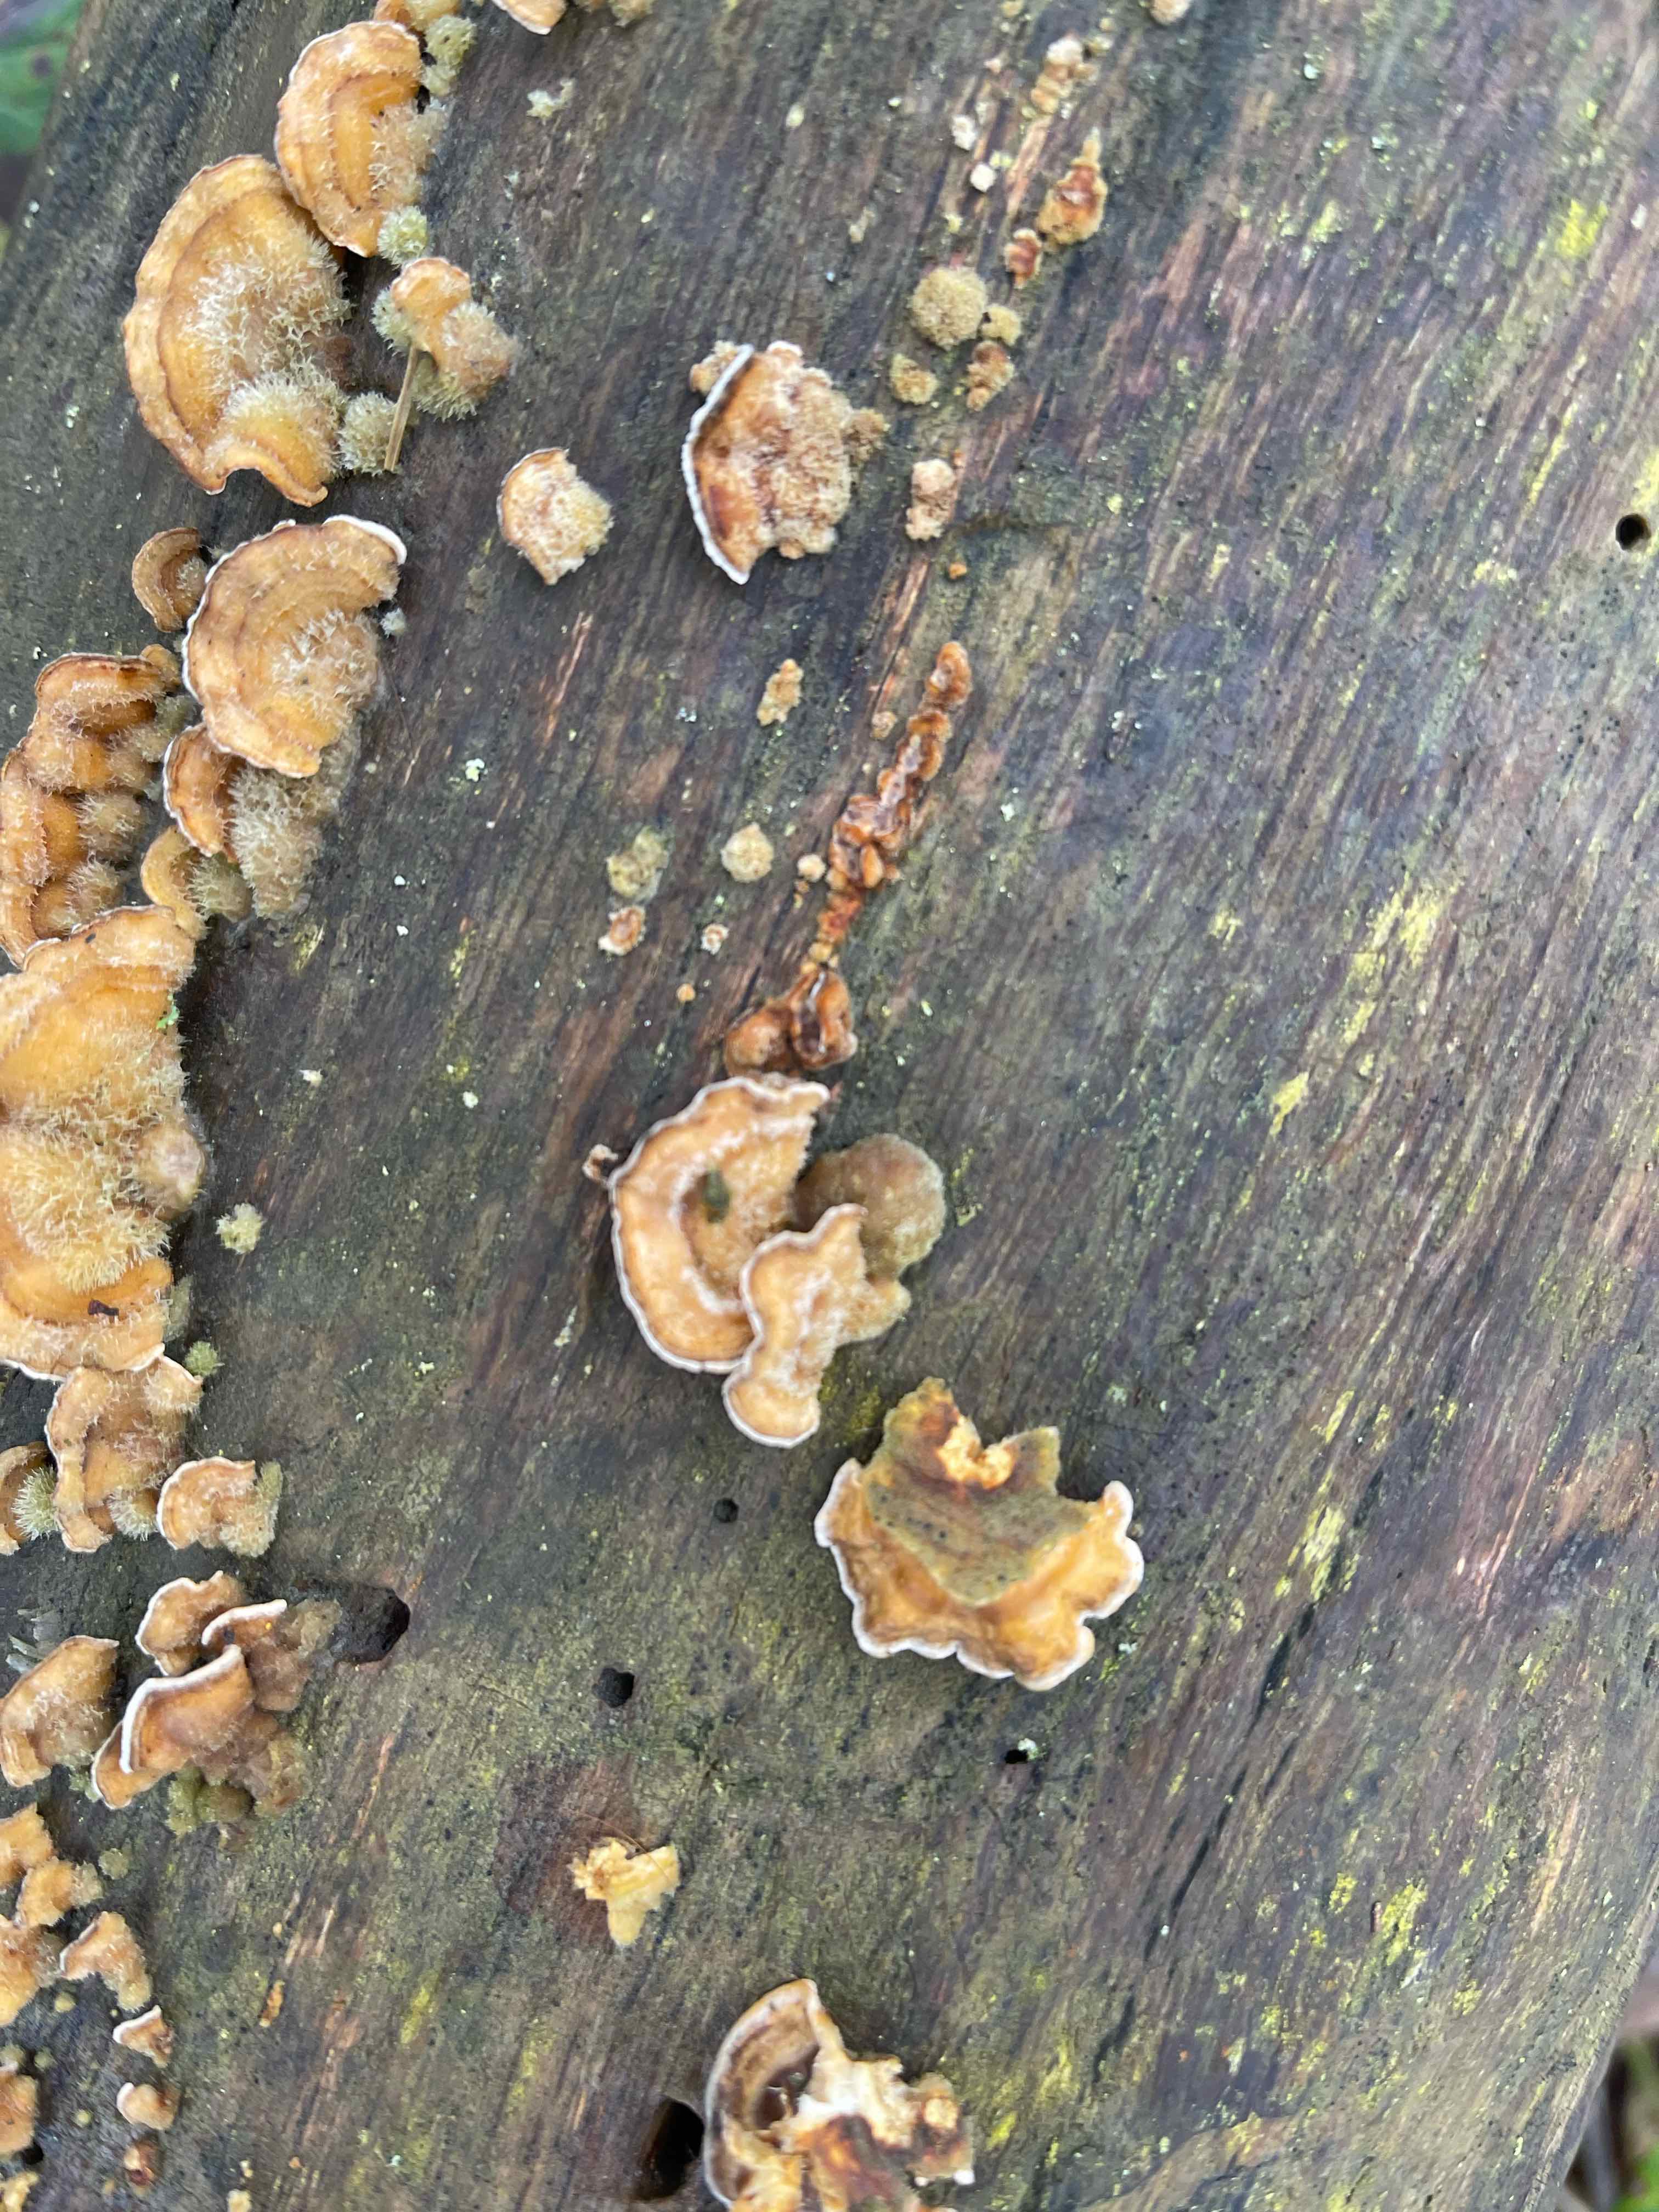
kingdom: Fungi
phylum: Basidiomycota
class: Agaricomycetes
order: Russulales
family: Stereaceae
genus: Stereum
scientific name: Stereum hirsutum
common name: håret lædersvamp
